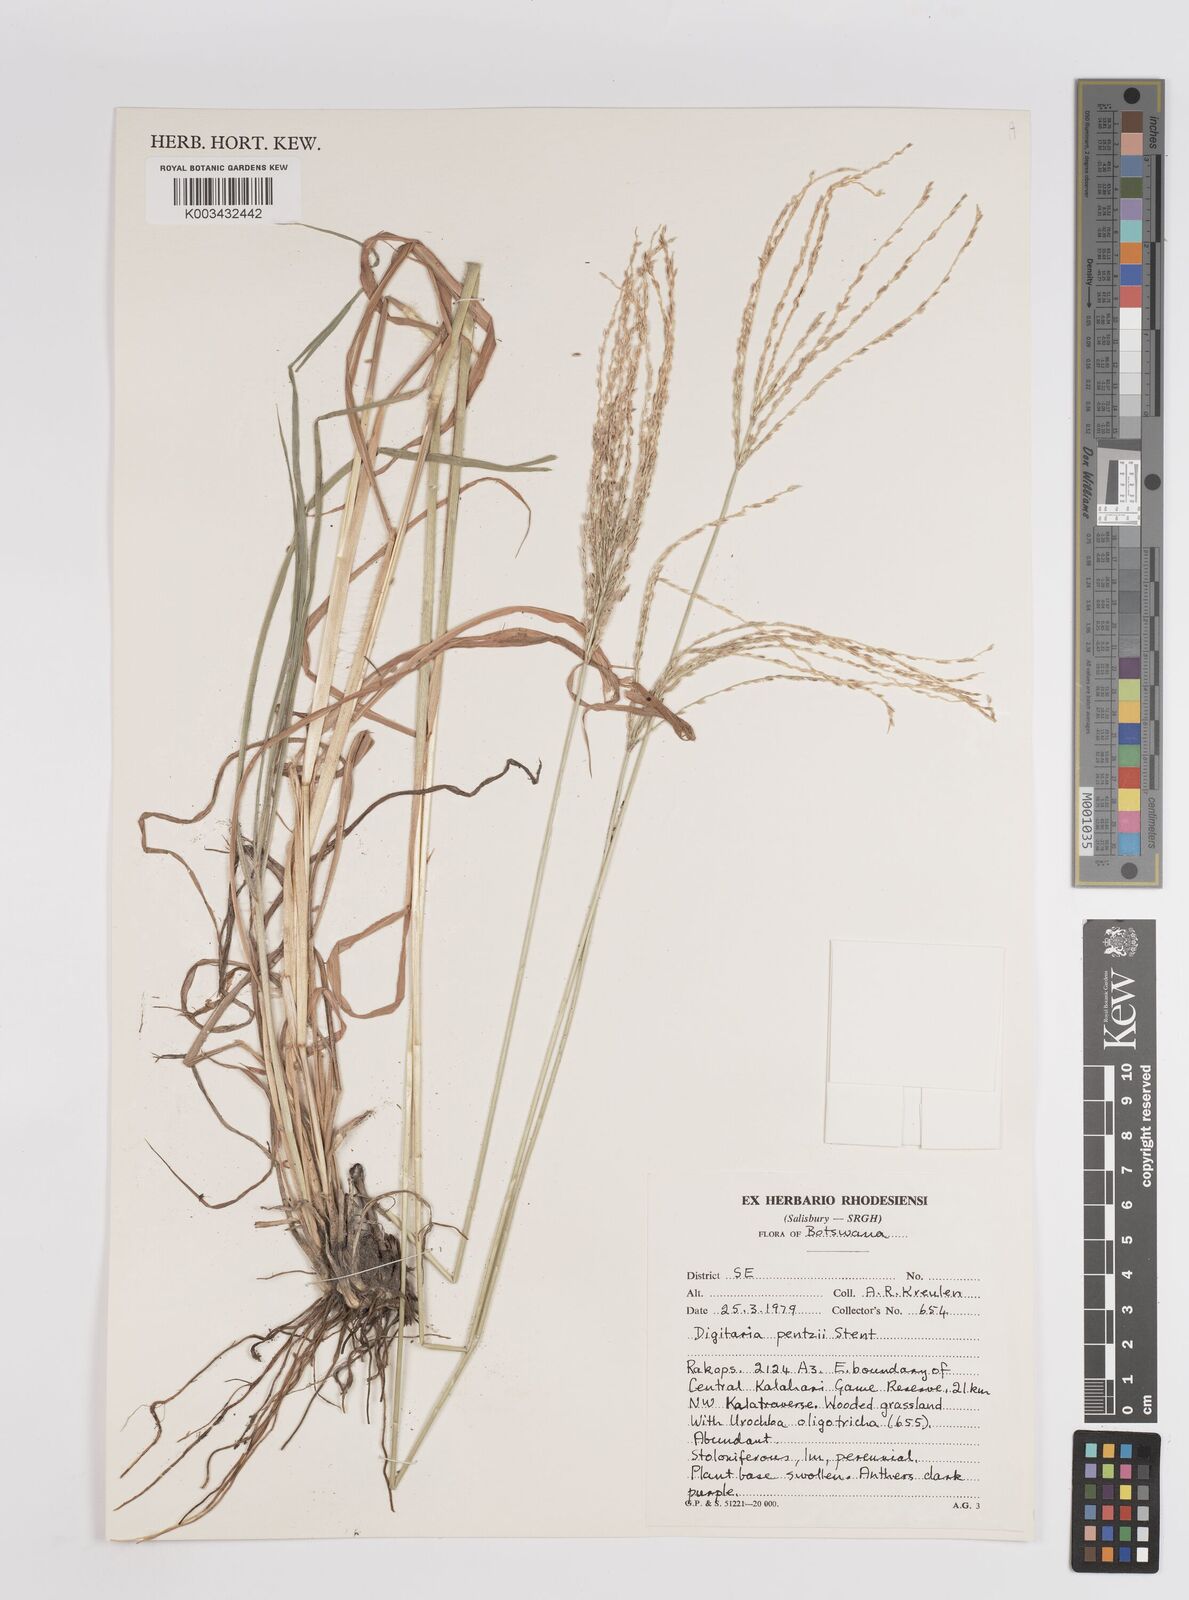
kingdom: Plantae
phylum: Tracheophyta
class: Liliopsida
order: Poales
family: Poaceae
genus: Digitaria
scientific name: Digitaria eriantha
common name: Digitgrass
